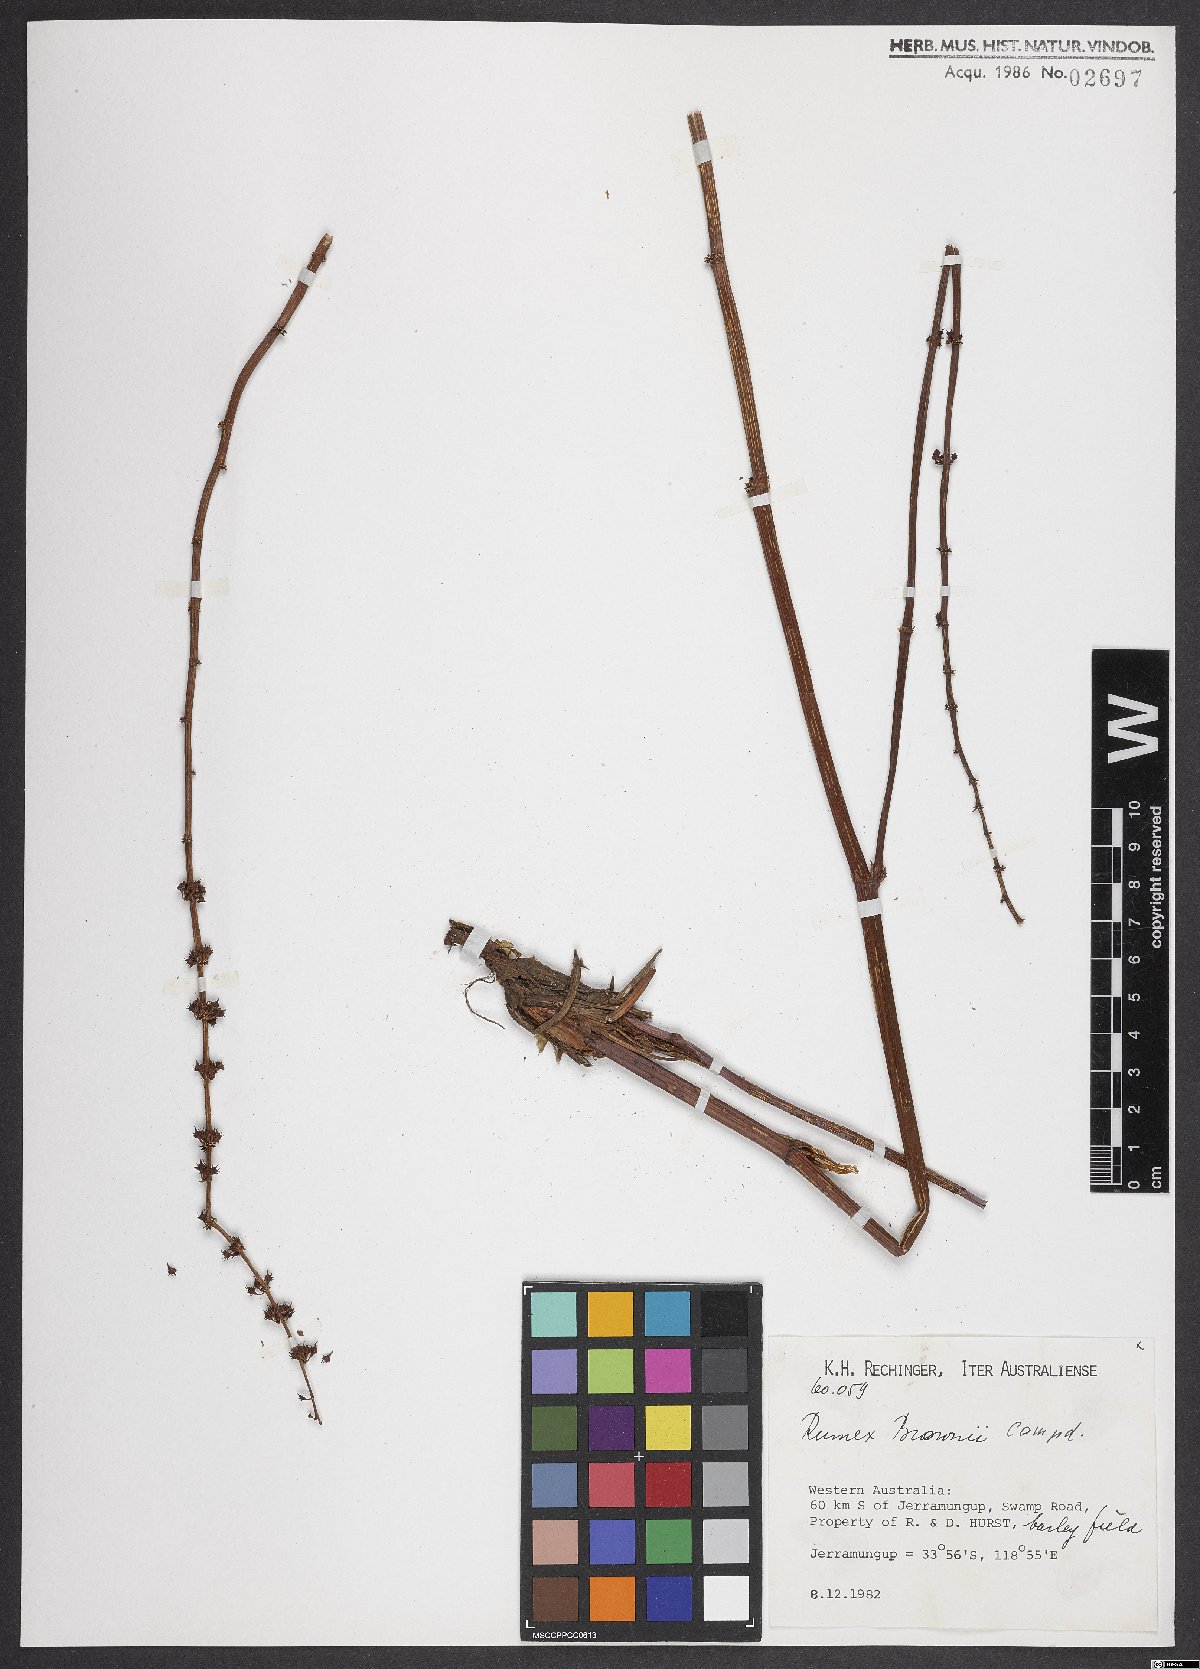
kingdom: Plantae
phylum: Tracheophyta
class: Magnoliopsida
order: Caryophyllales
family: Polygonaceae
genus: Rumex
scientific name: Rumex brownii
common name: Hooked dock
